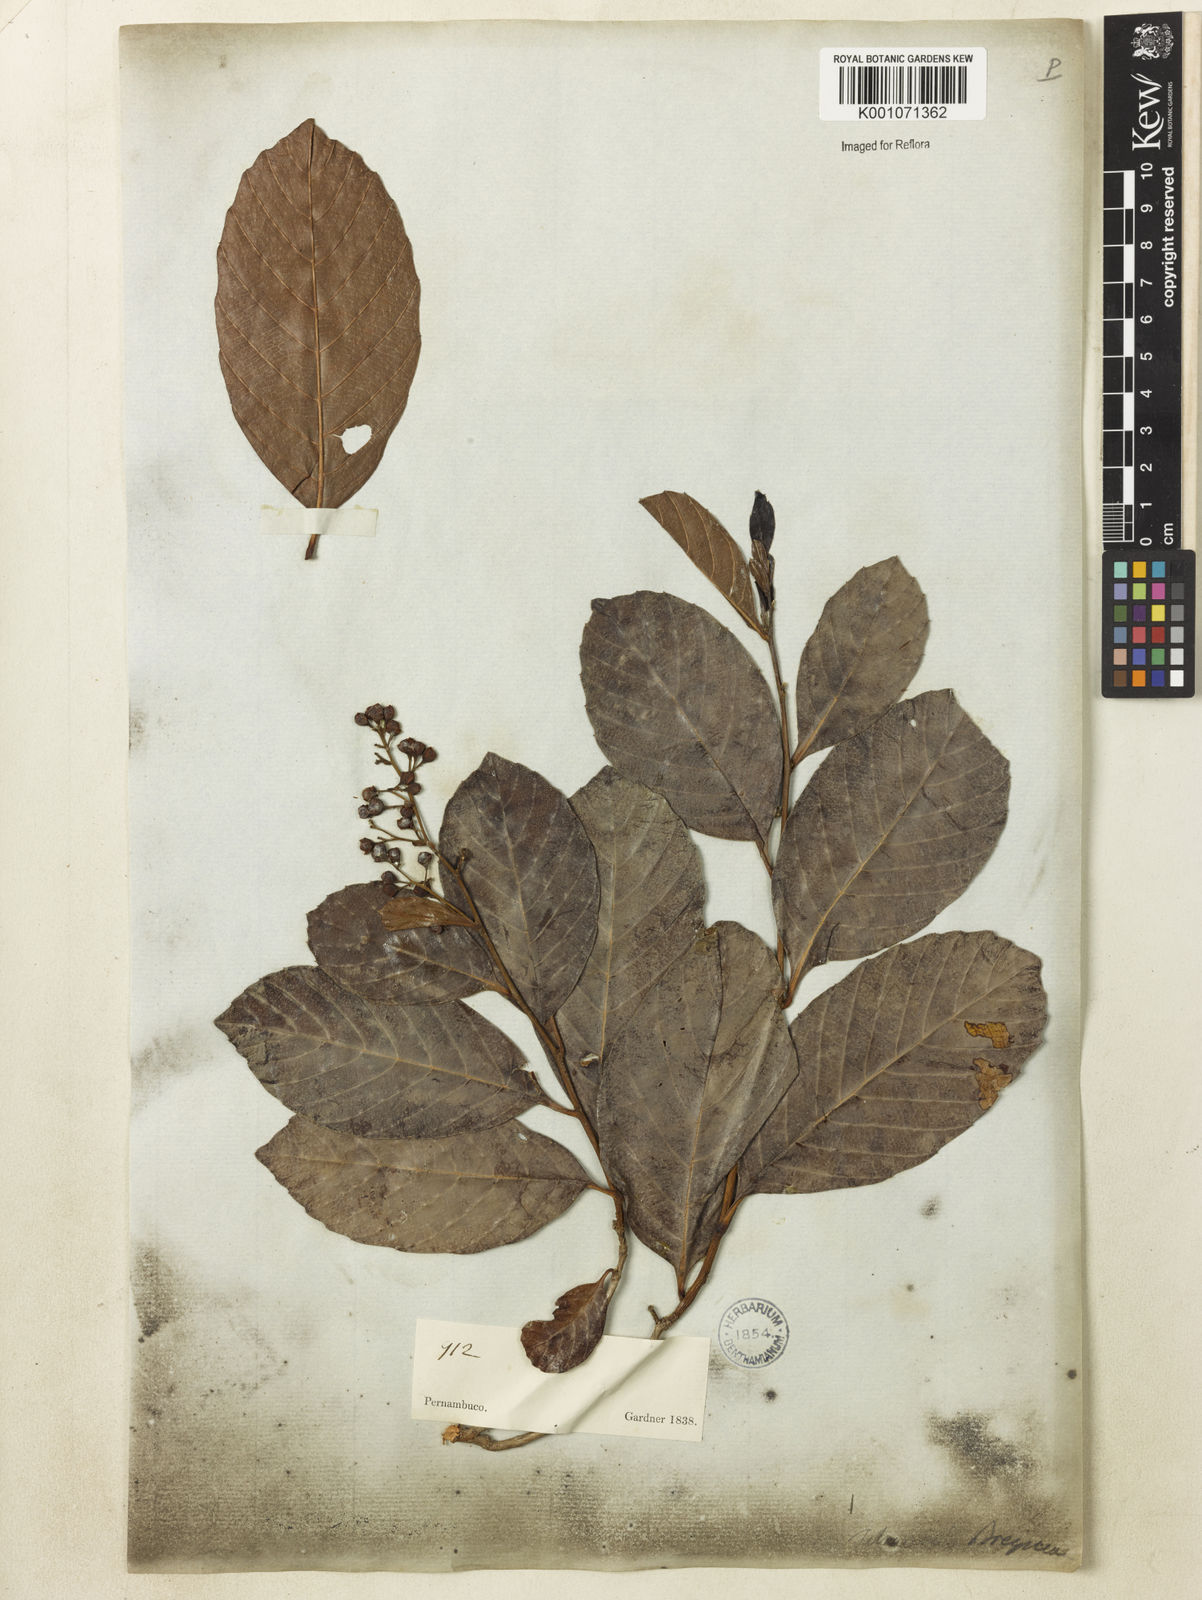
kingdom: Plantae
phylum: Tracheophyta
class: Magnoliopsida
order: Dilleniales
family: Dilleniaceae
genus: Tetracera
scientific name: Tetracera volubilis
